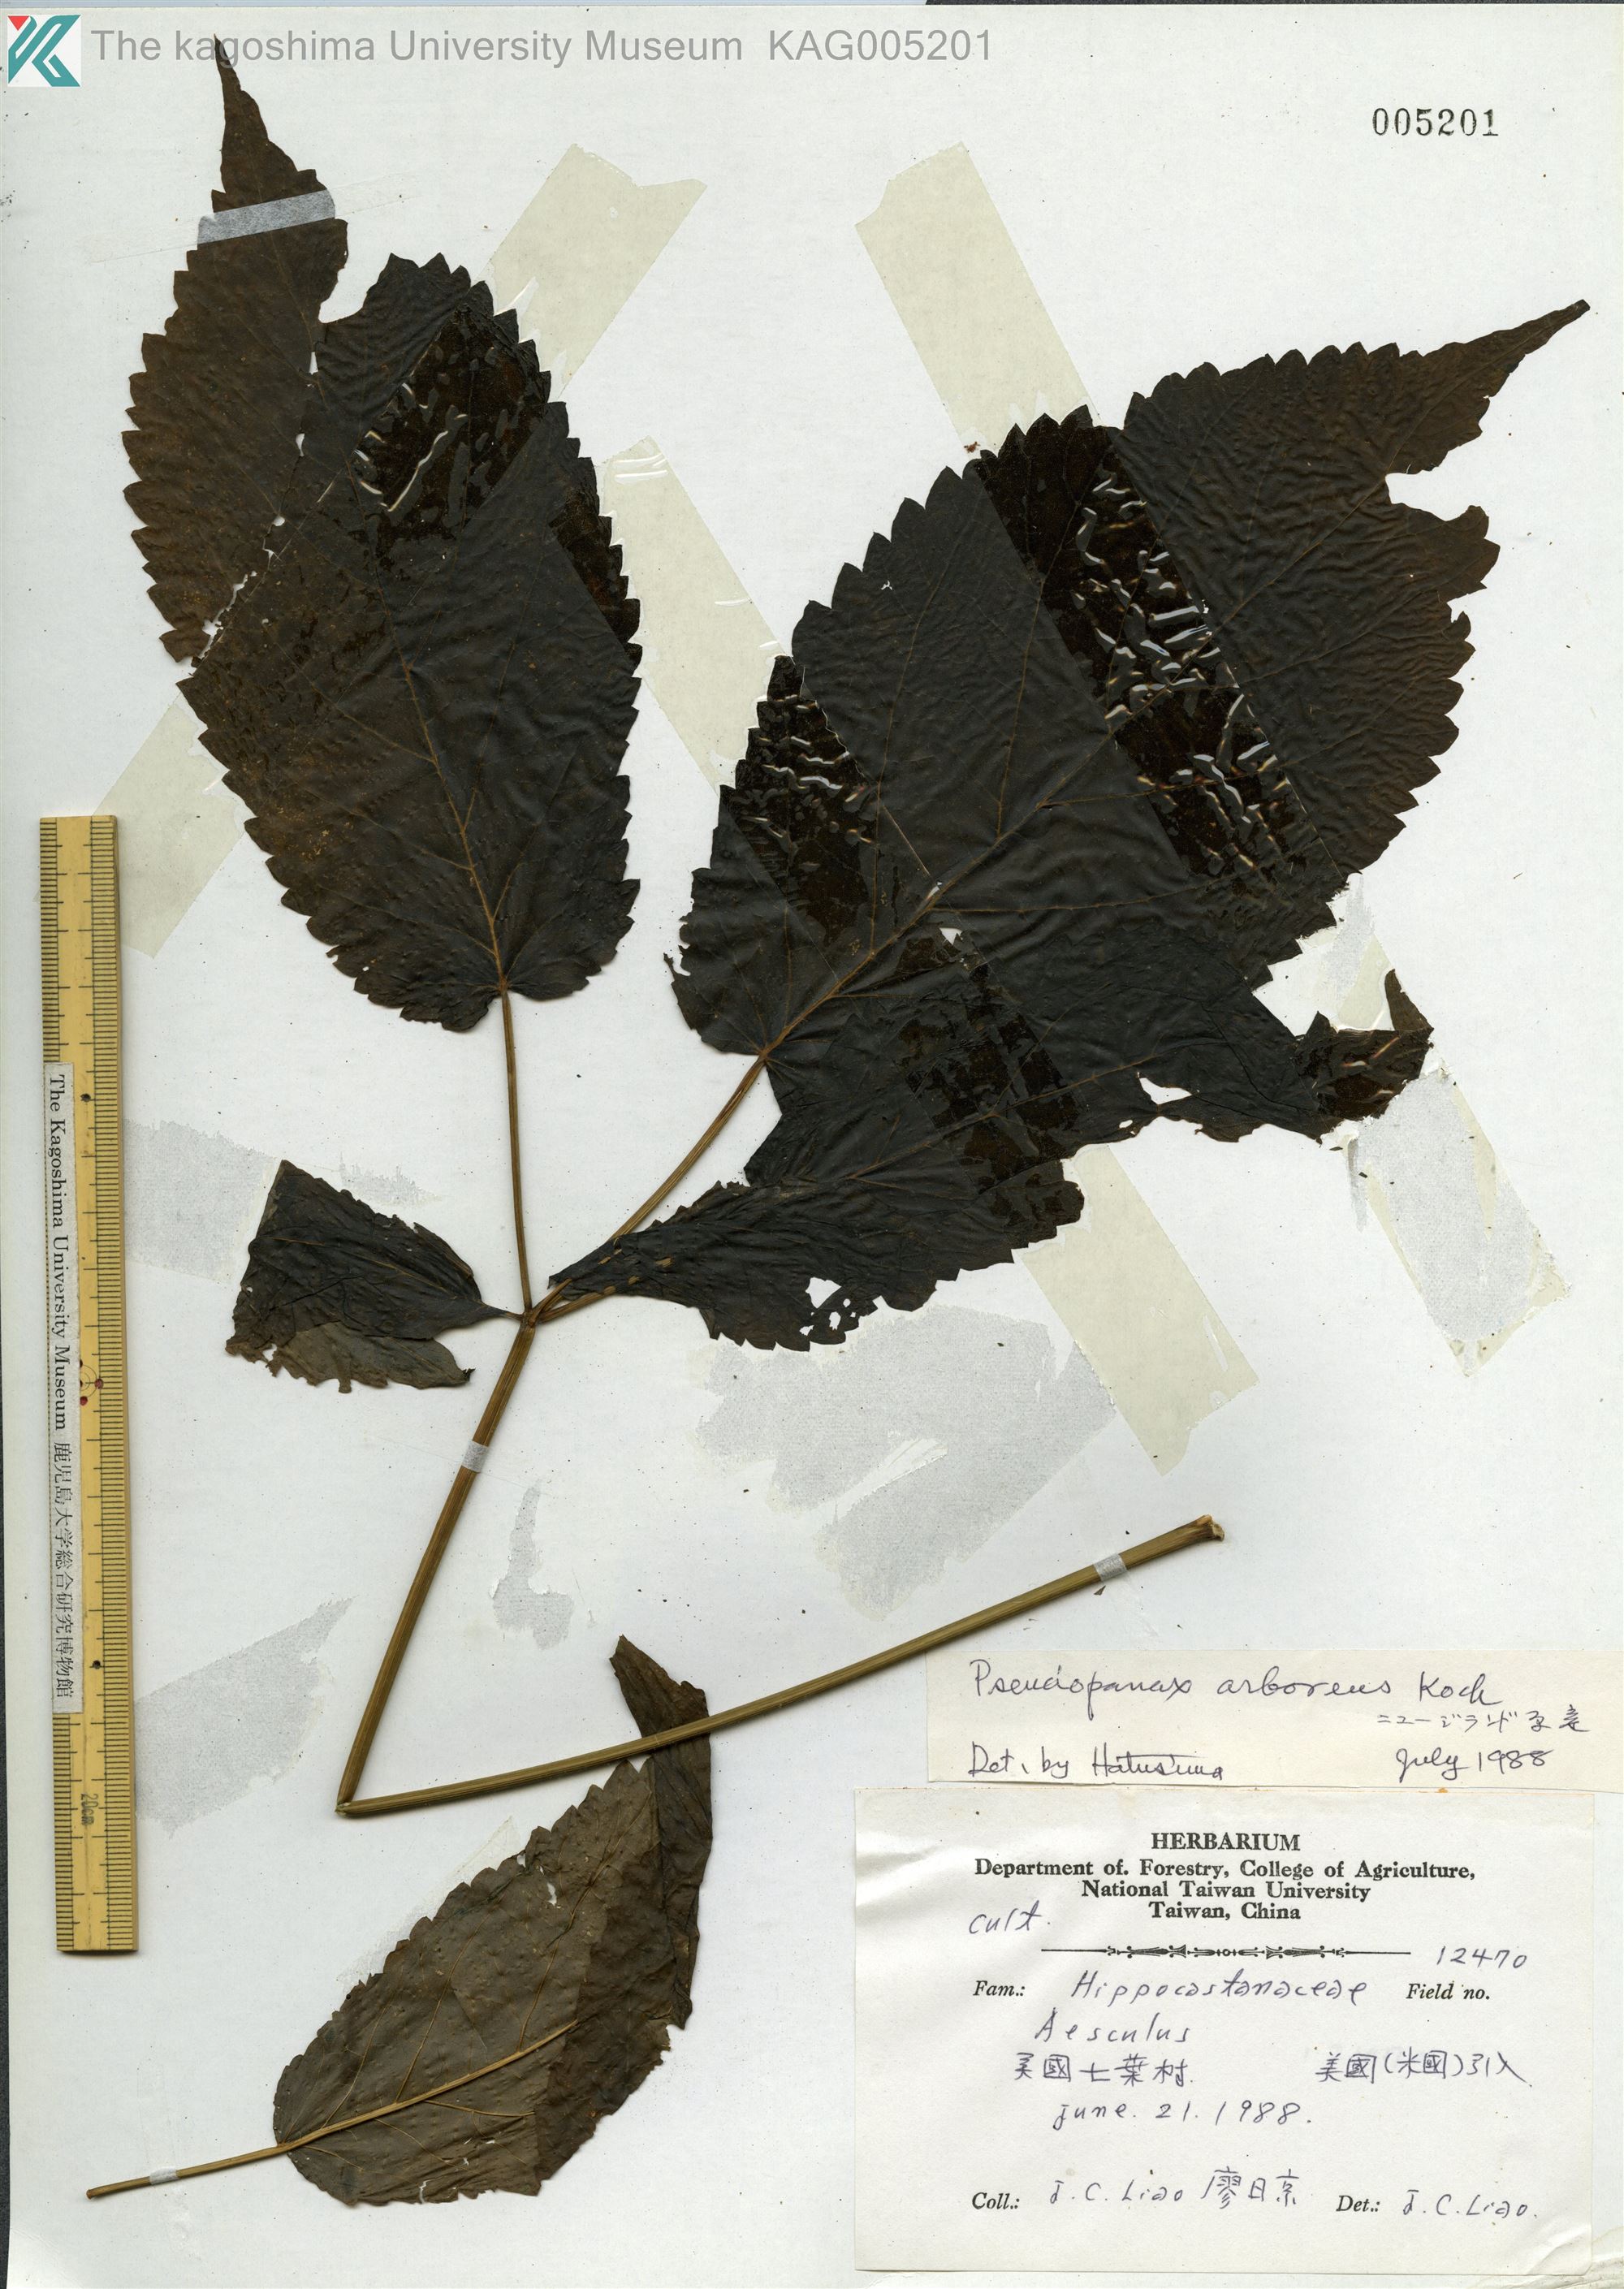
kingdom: Plantae
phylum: Tracheophyta
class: Magnoliopsida
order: Apiales
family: Araliaceae
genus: Neopanax
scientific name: Neopanax arboreus
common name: Five-fingers
